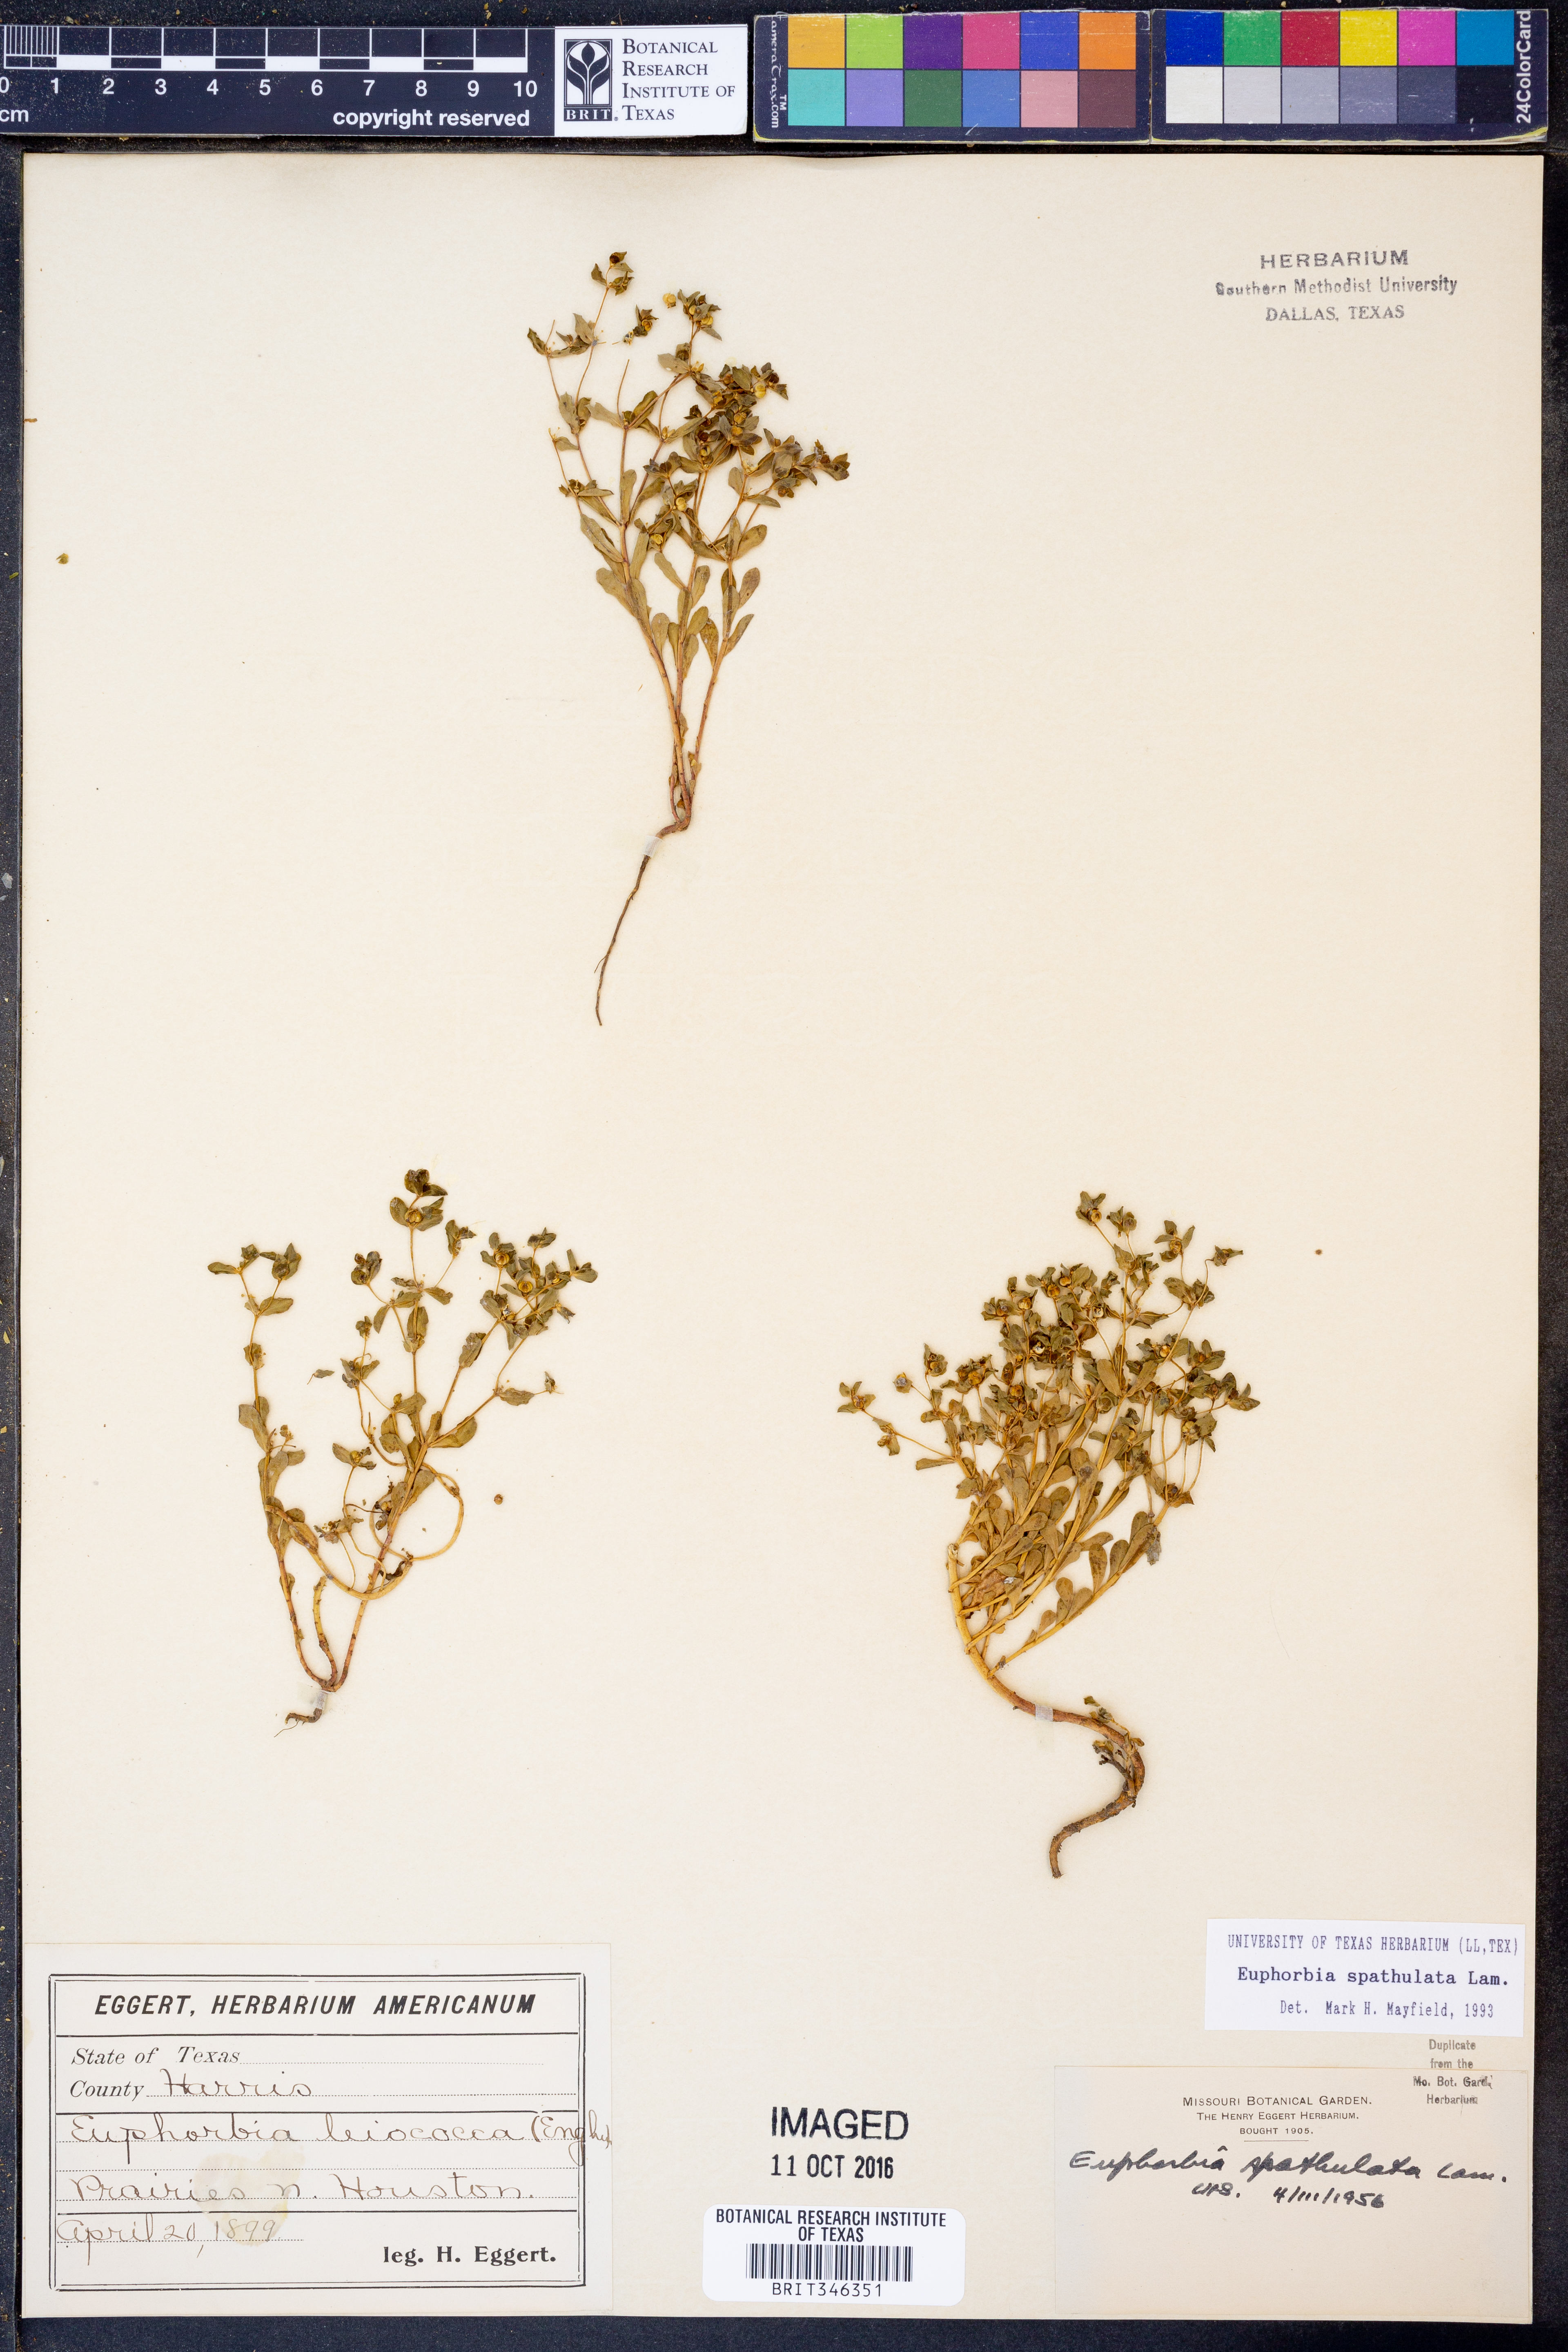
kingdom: Plantae
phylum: Tracheophyta
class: Magnoliopsida
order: Malpighiales
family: Euphorbiaceae
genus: Euphorbia
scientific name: Euphorbia spathulata
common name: Blunt spurge
